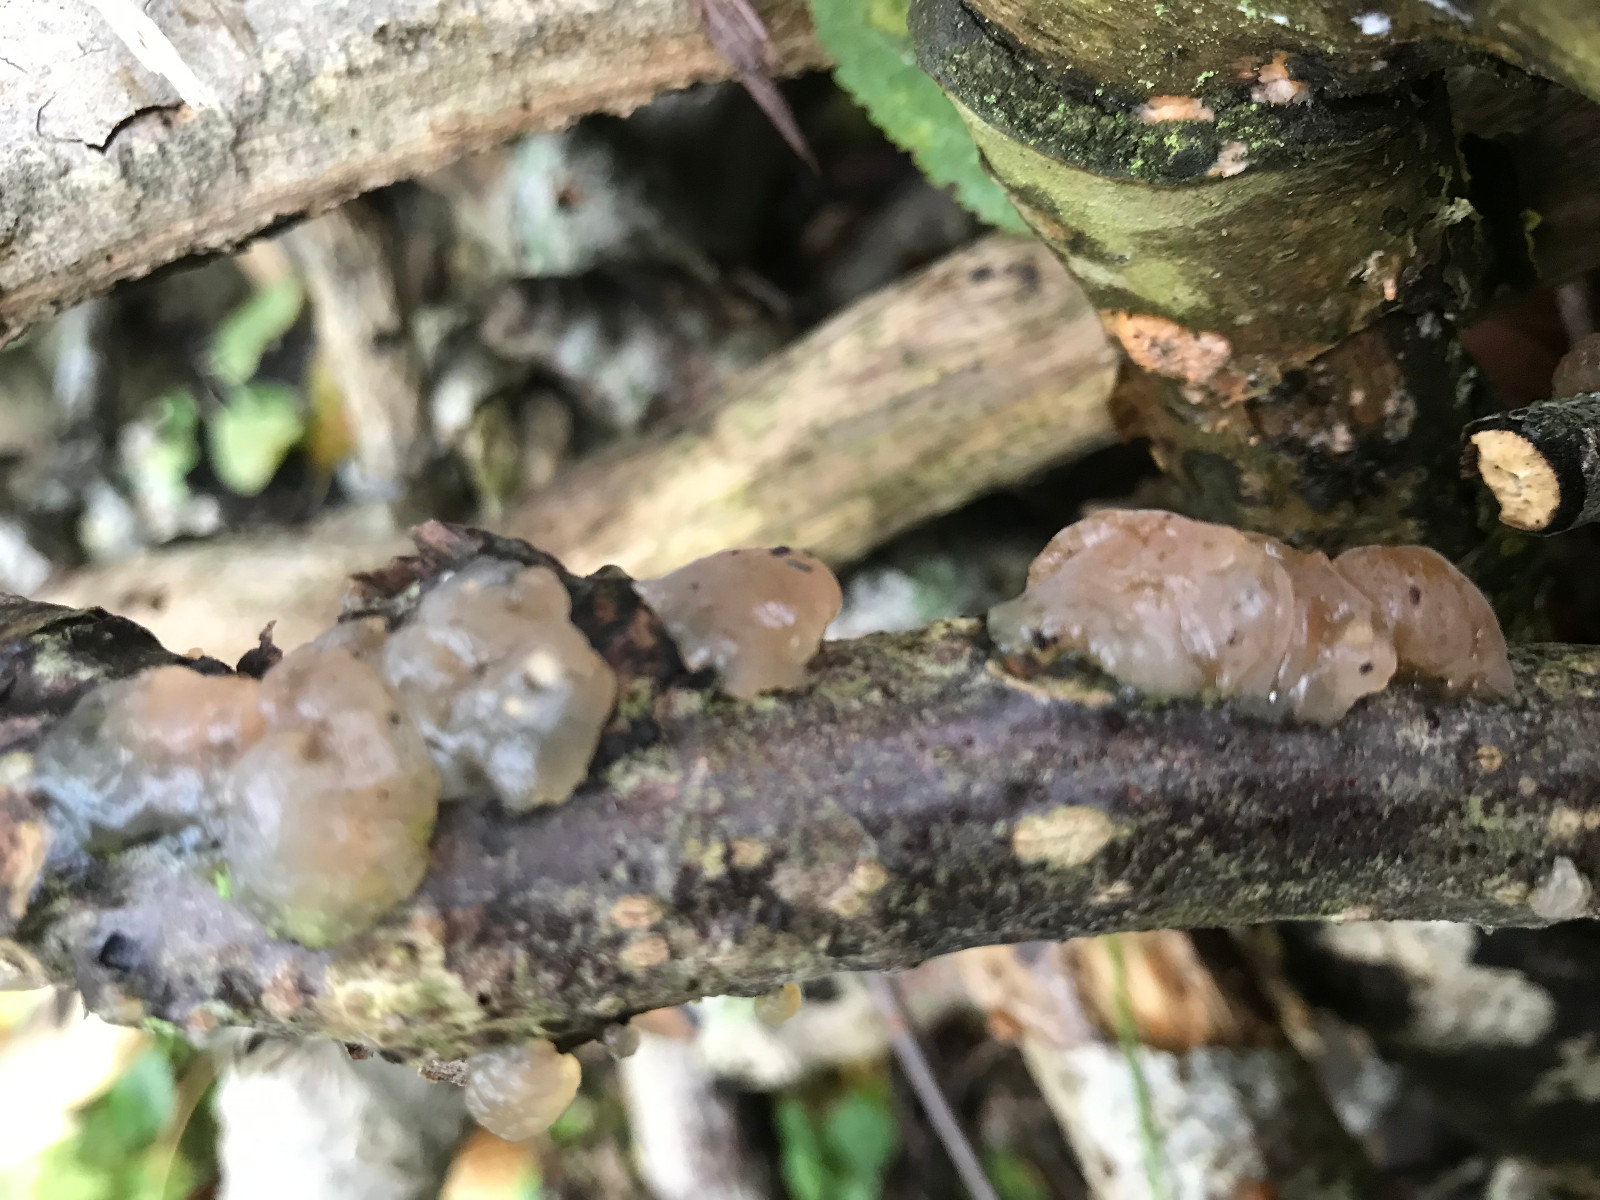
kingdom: Fungi
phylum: Basidiomycota
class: Agaricomycetes
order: Auriculariales
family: Hyaloriaceae
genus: Myxarium
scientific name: Myxarium
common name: bævretop
